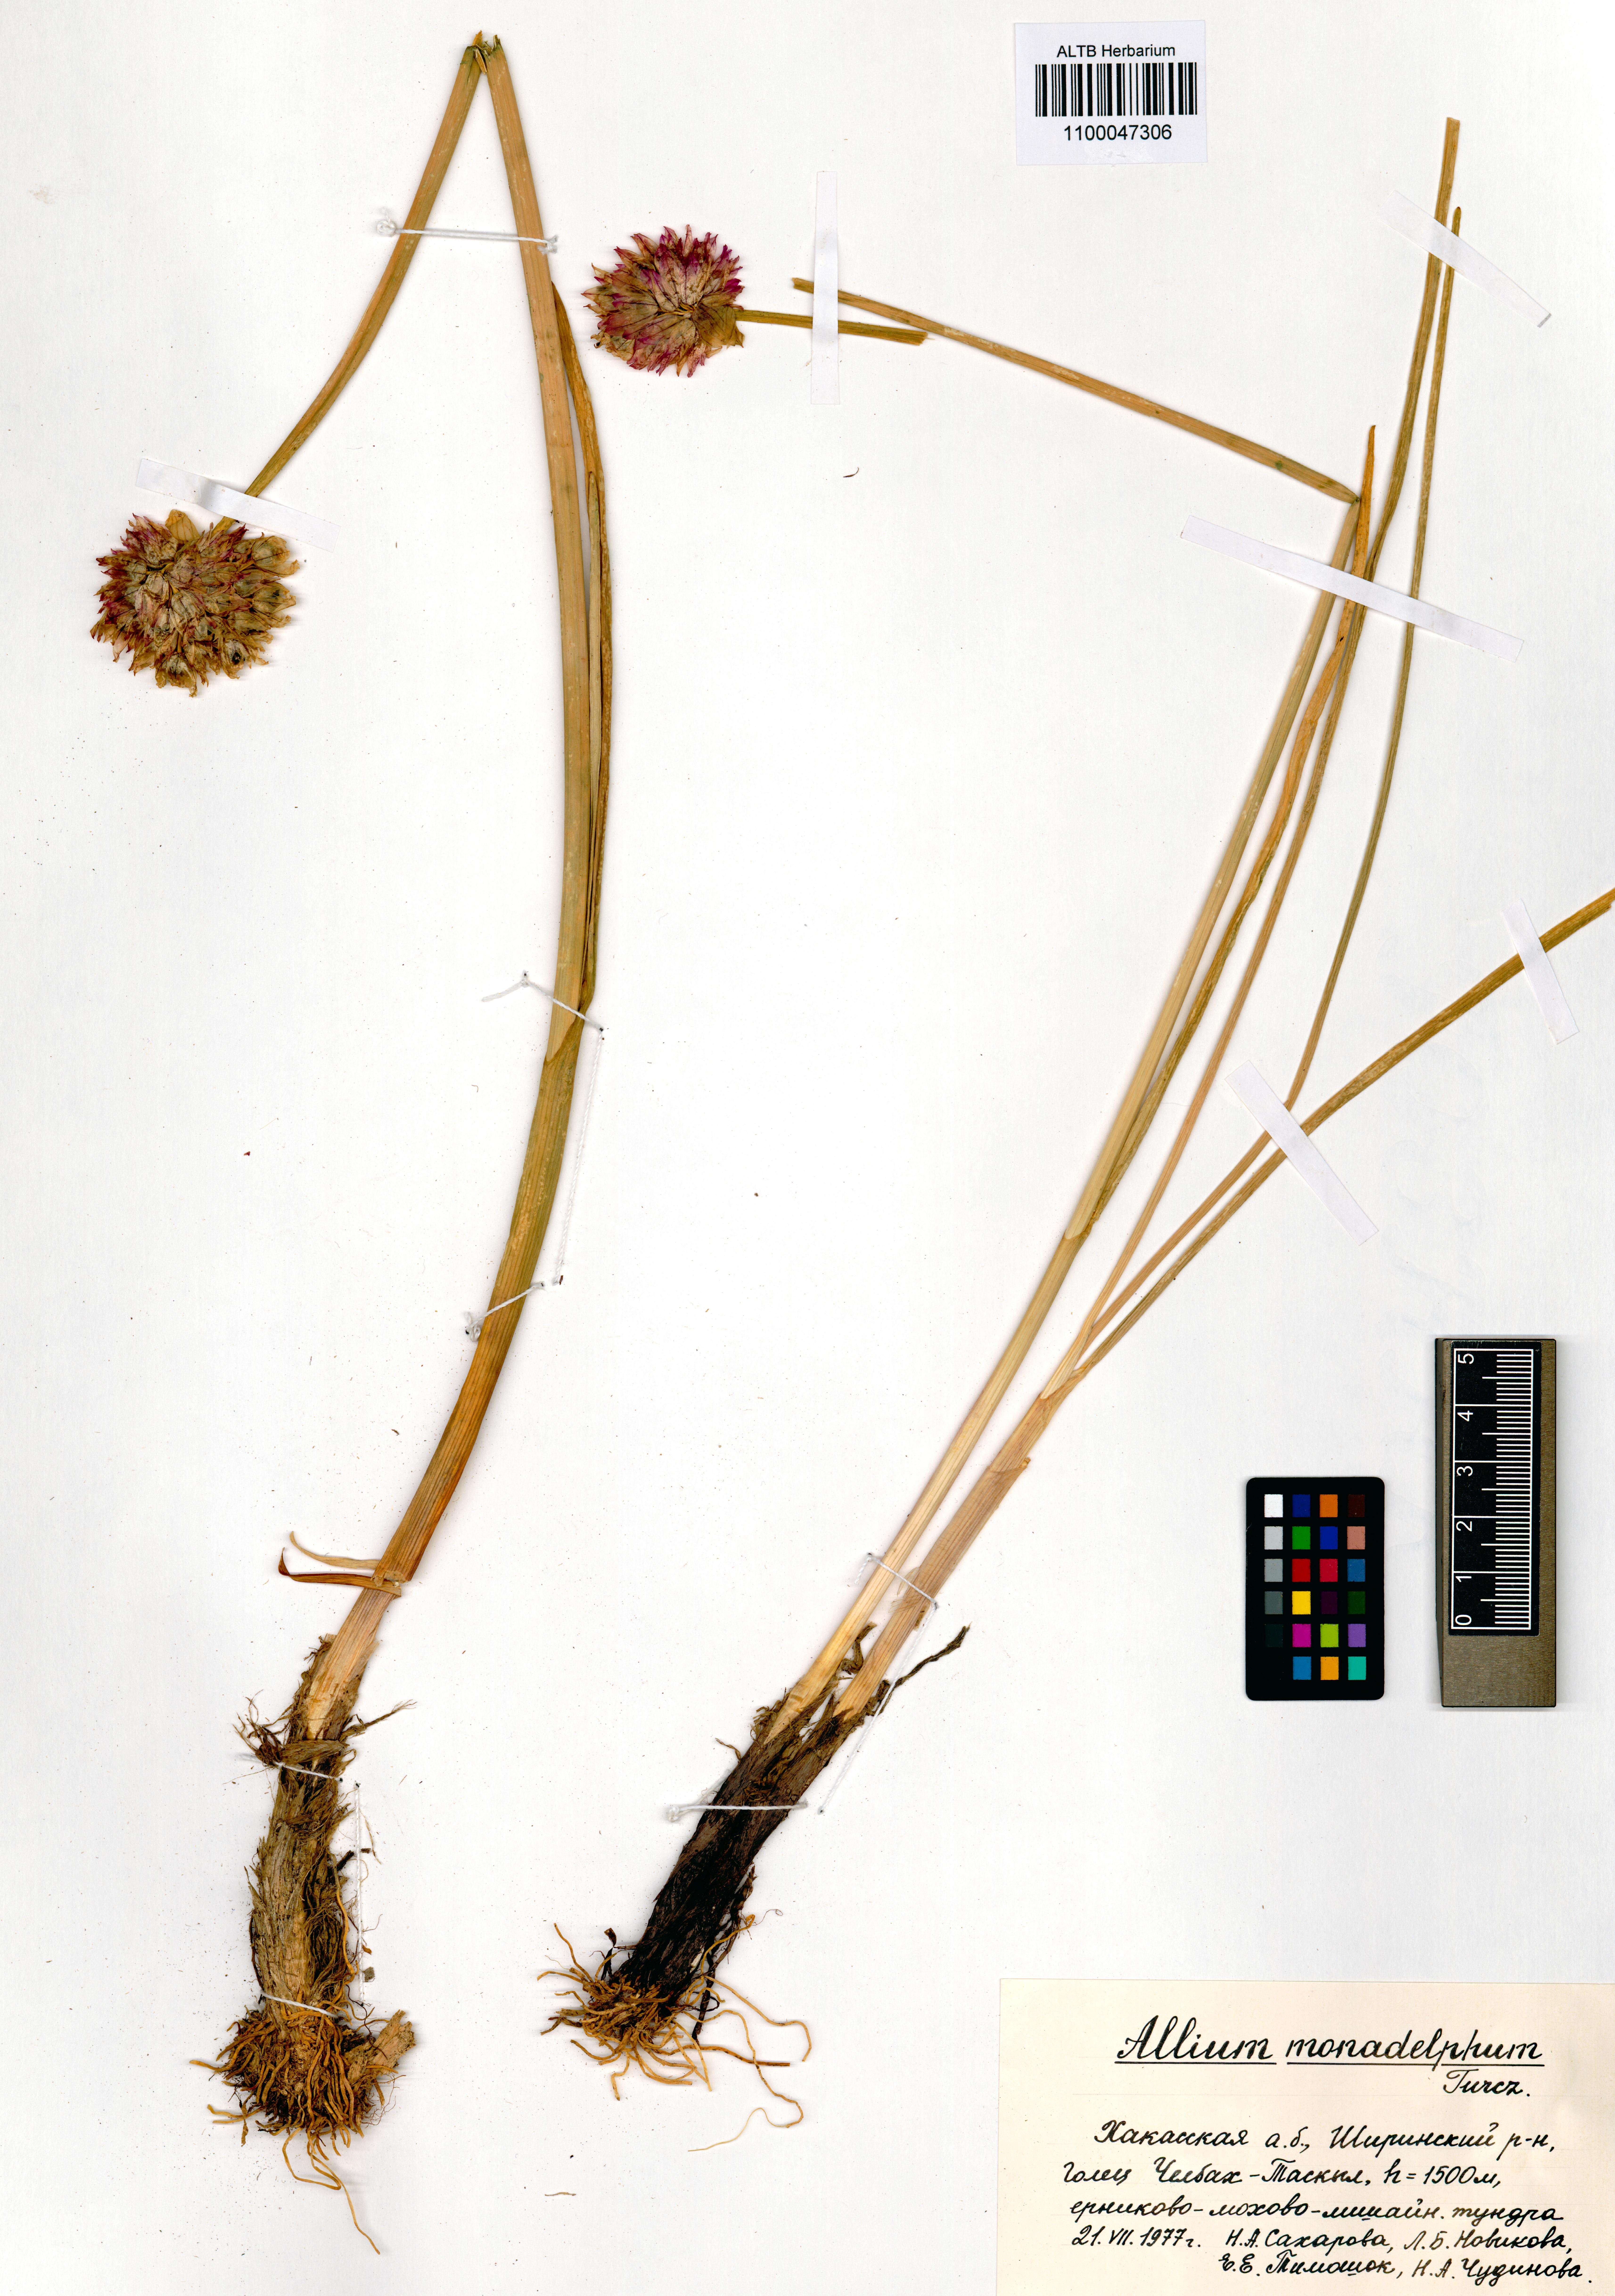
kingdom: Plantae
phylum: Tracheophyta
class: Liliopsida
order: Asparagales
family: Amaryllidaceae
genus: Allium
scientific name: Allium atrosanguineum
